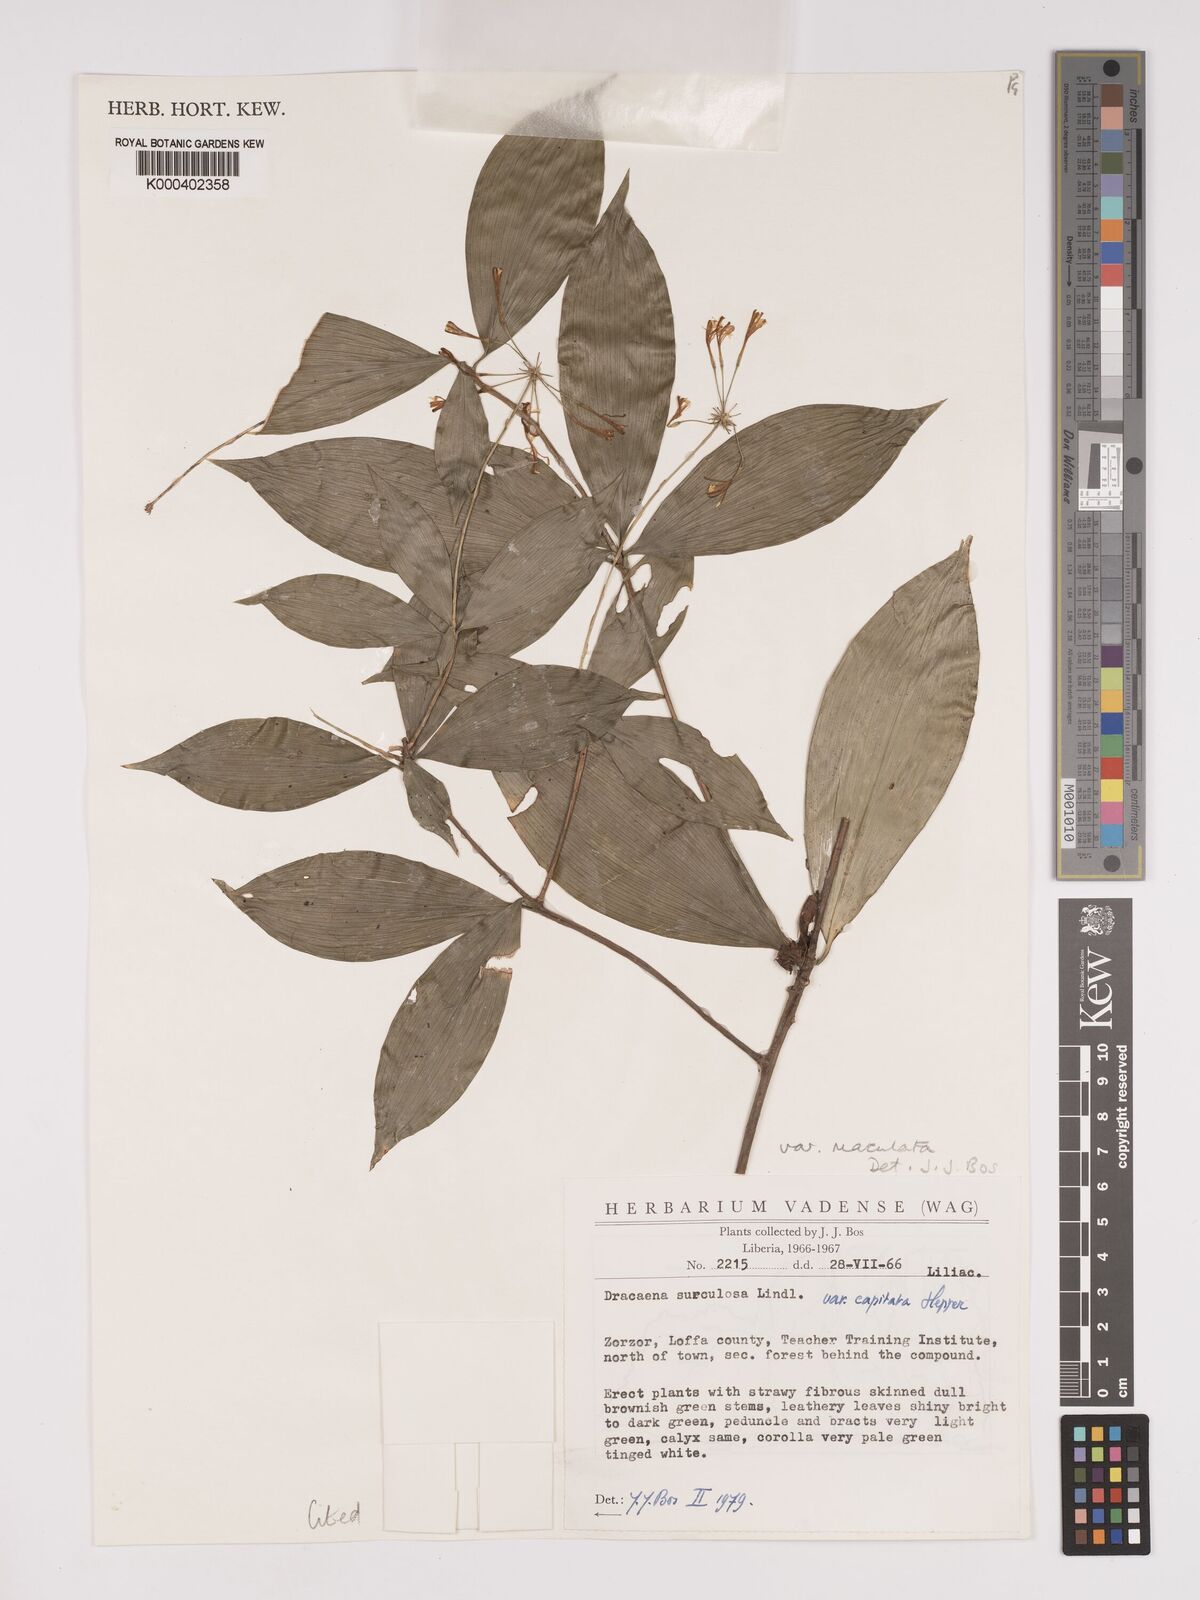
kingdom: Plantae
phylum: Tracheophyta
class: Liliopsida
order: Asparagales
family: Asparagaceae
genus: Dracaena
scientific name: Dracaena surculosa
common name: Spotted dracaena
